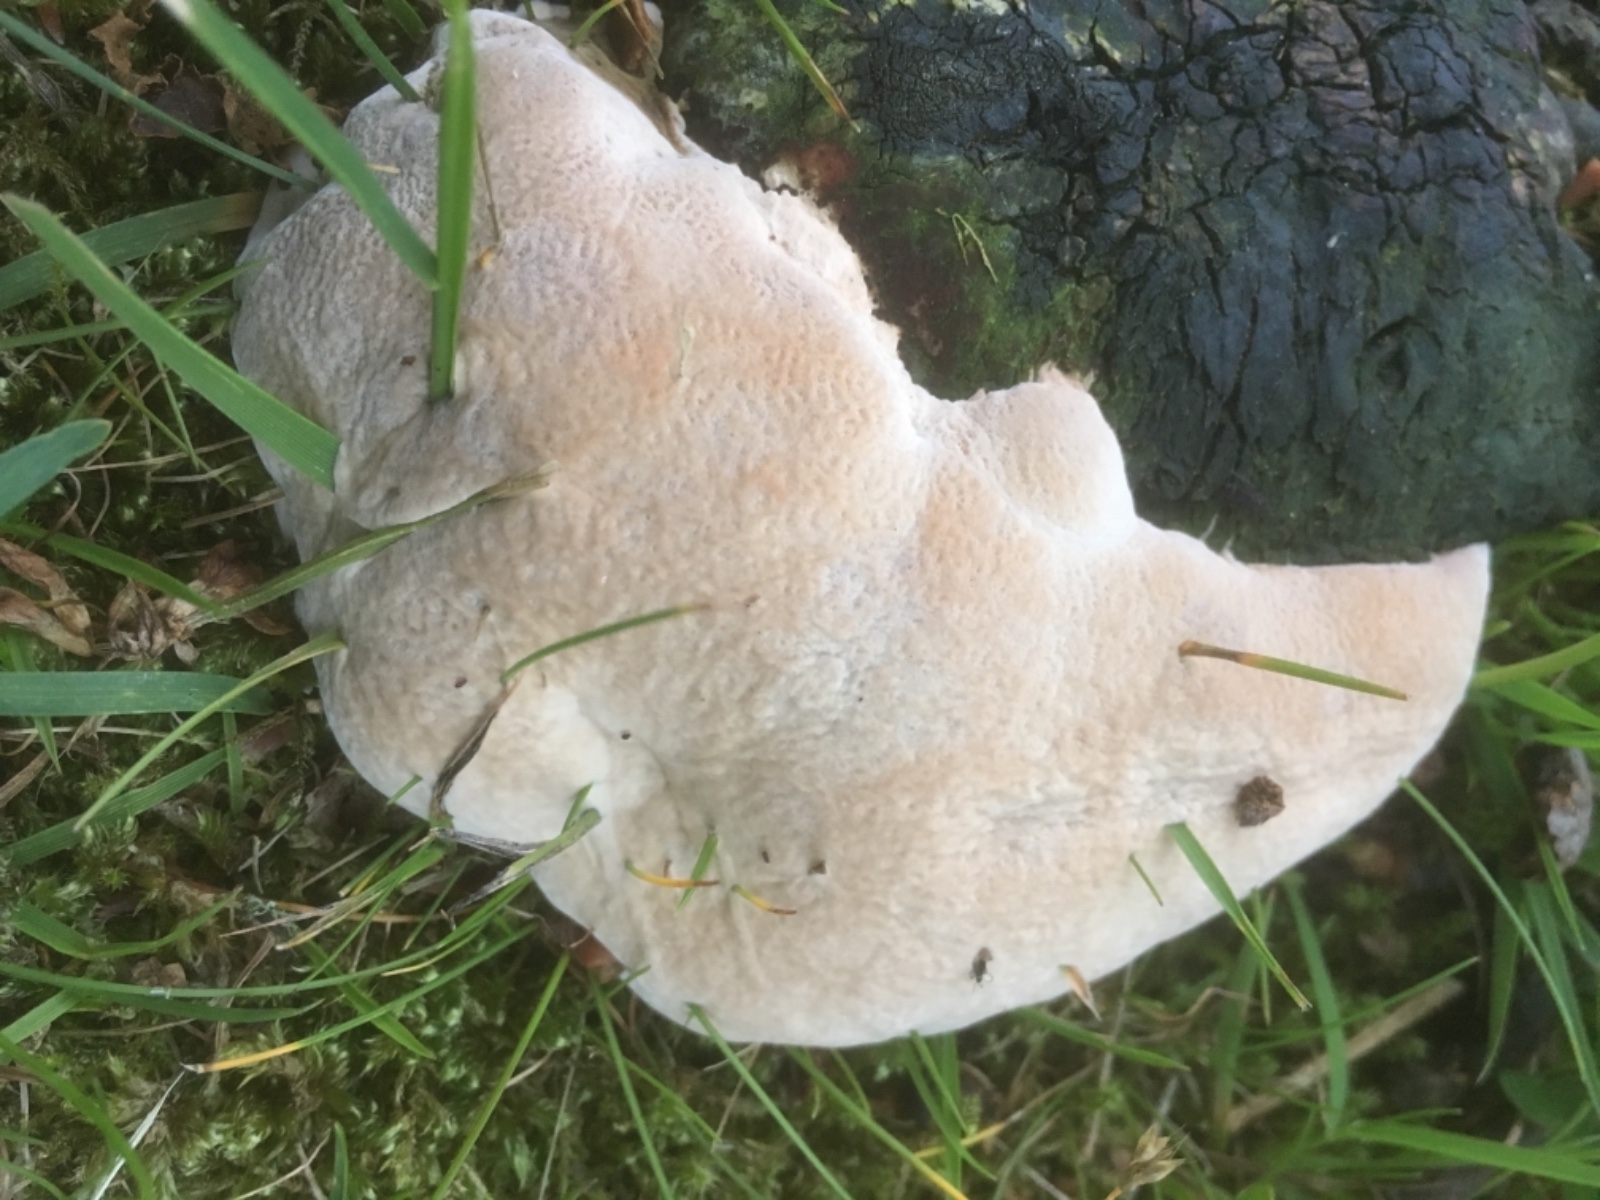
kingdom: Fungi
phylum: Basidiomycota
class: Agaricomycetes
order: Polyporales
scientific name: Polyporales
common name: poresvampordenen
